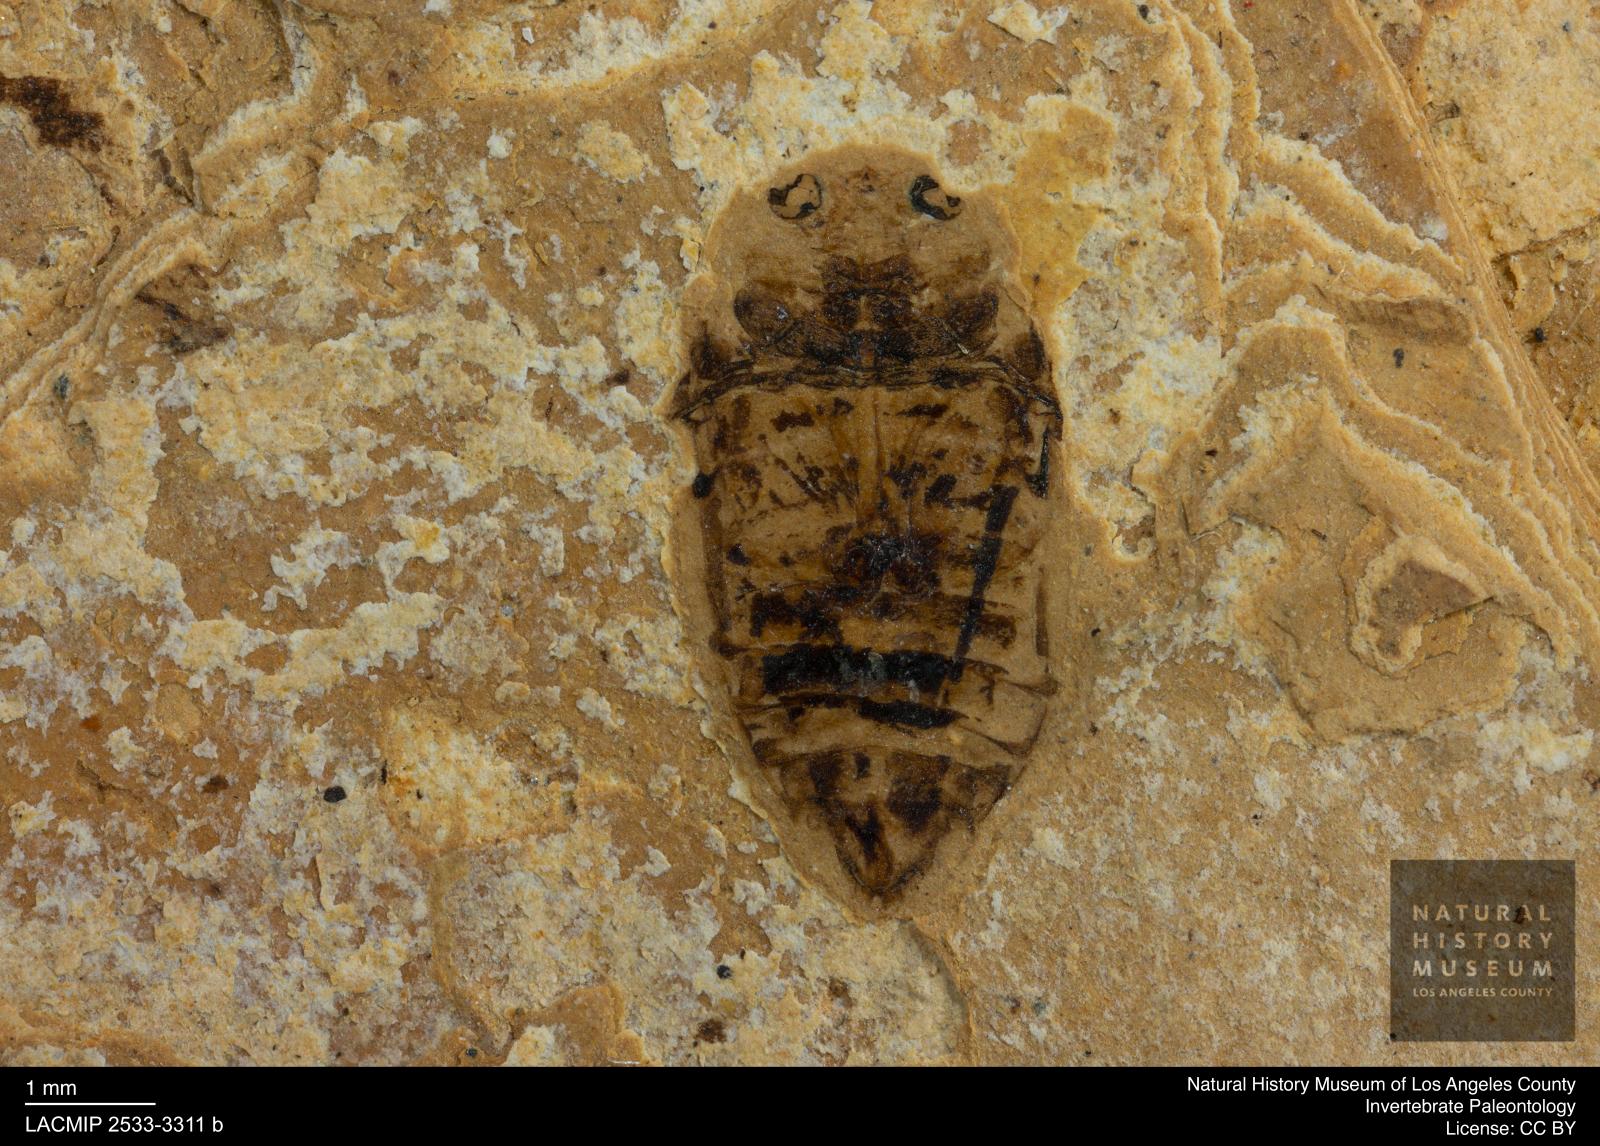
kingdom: Animalia
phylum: Arthropoda
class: Insecta
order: Coleoptera
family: Dytiscidae
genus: Laccophilus
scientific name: Laccophilus Palaeogyrinus strigatus
